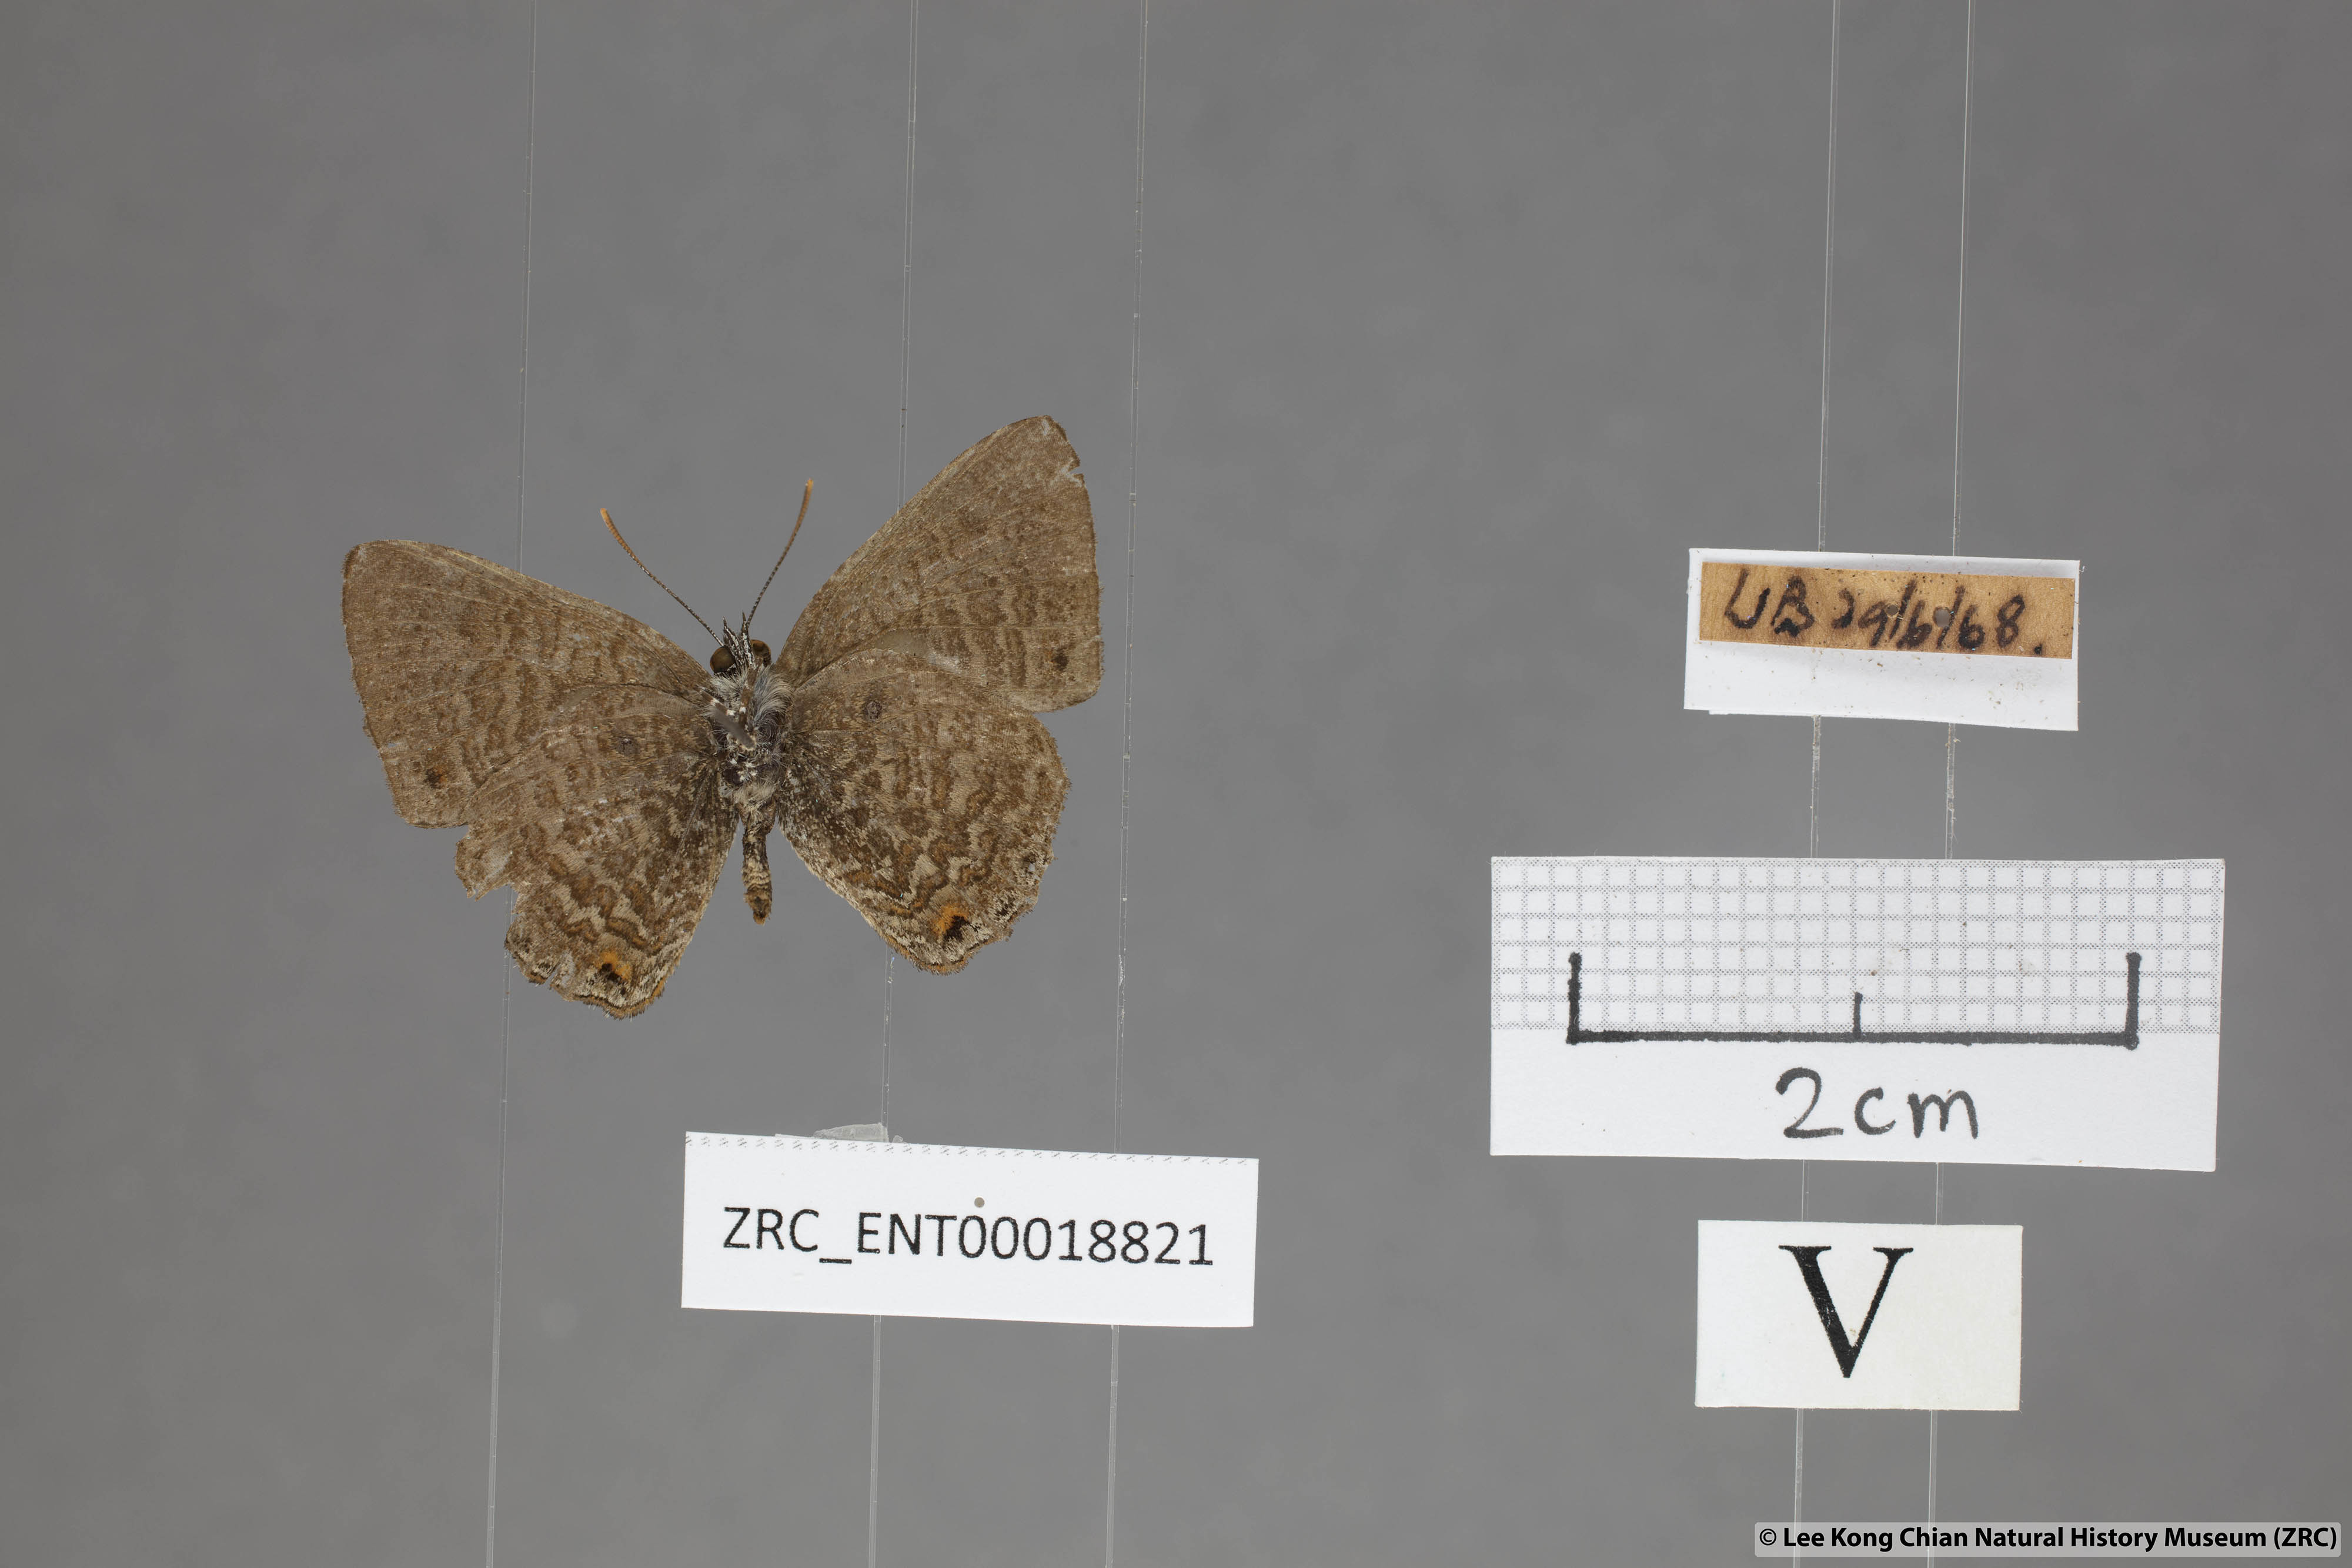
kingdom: Animalia
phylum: Arthropoda
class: Insecta
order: Lepidoptera
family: Lycaenidae
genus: Poritia
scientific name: Poritia philota
